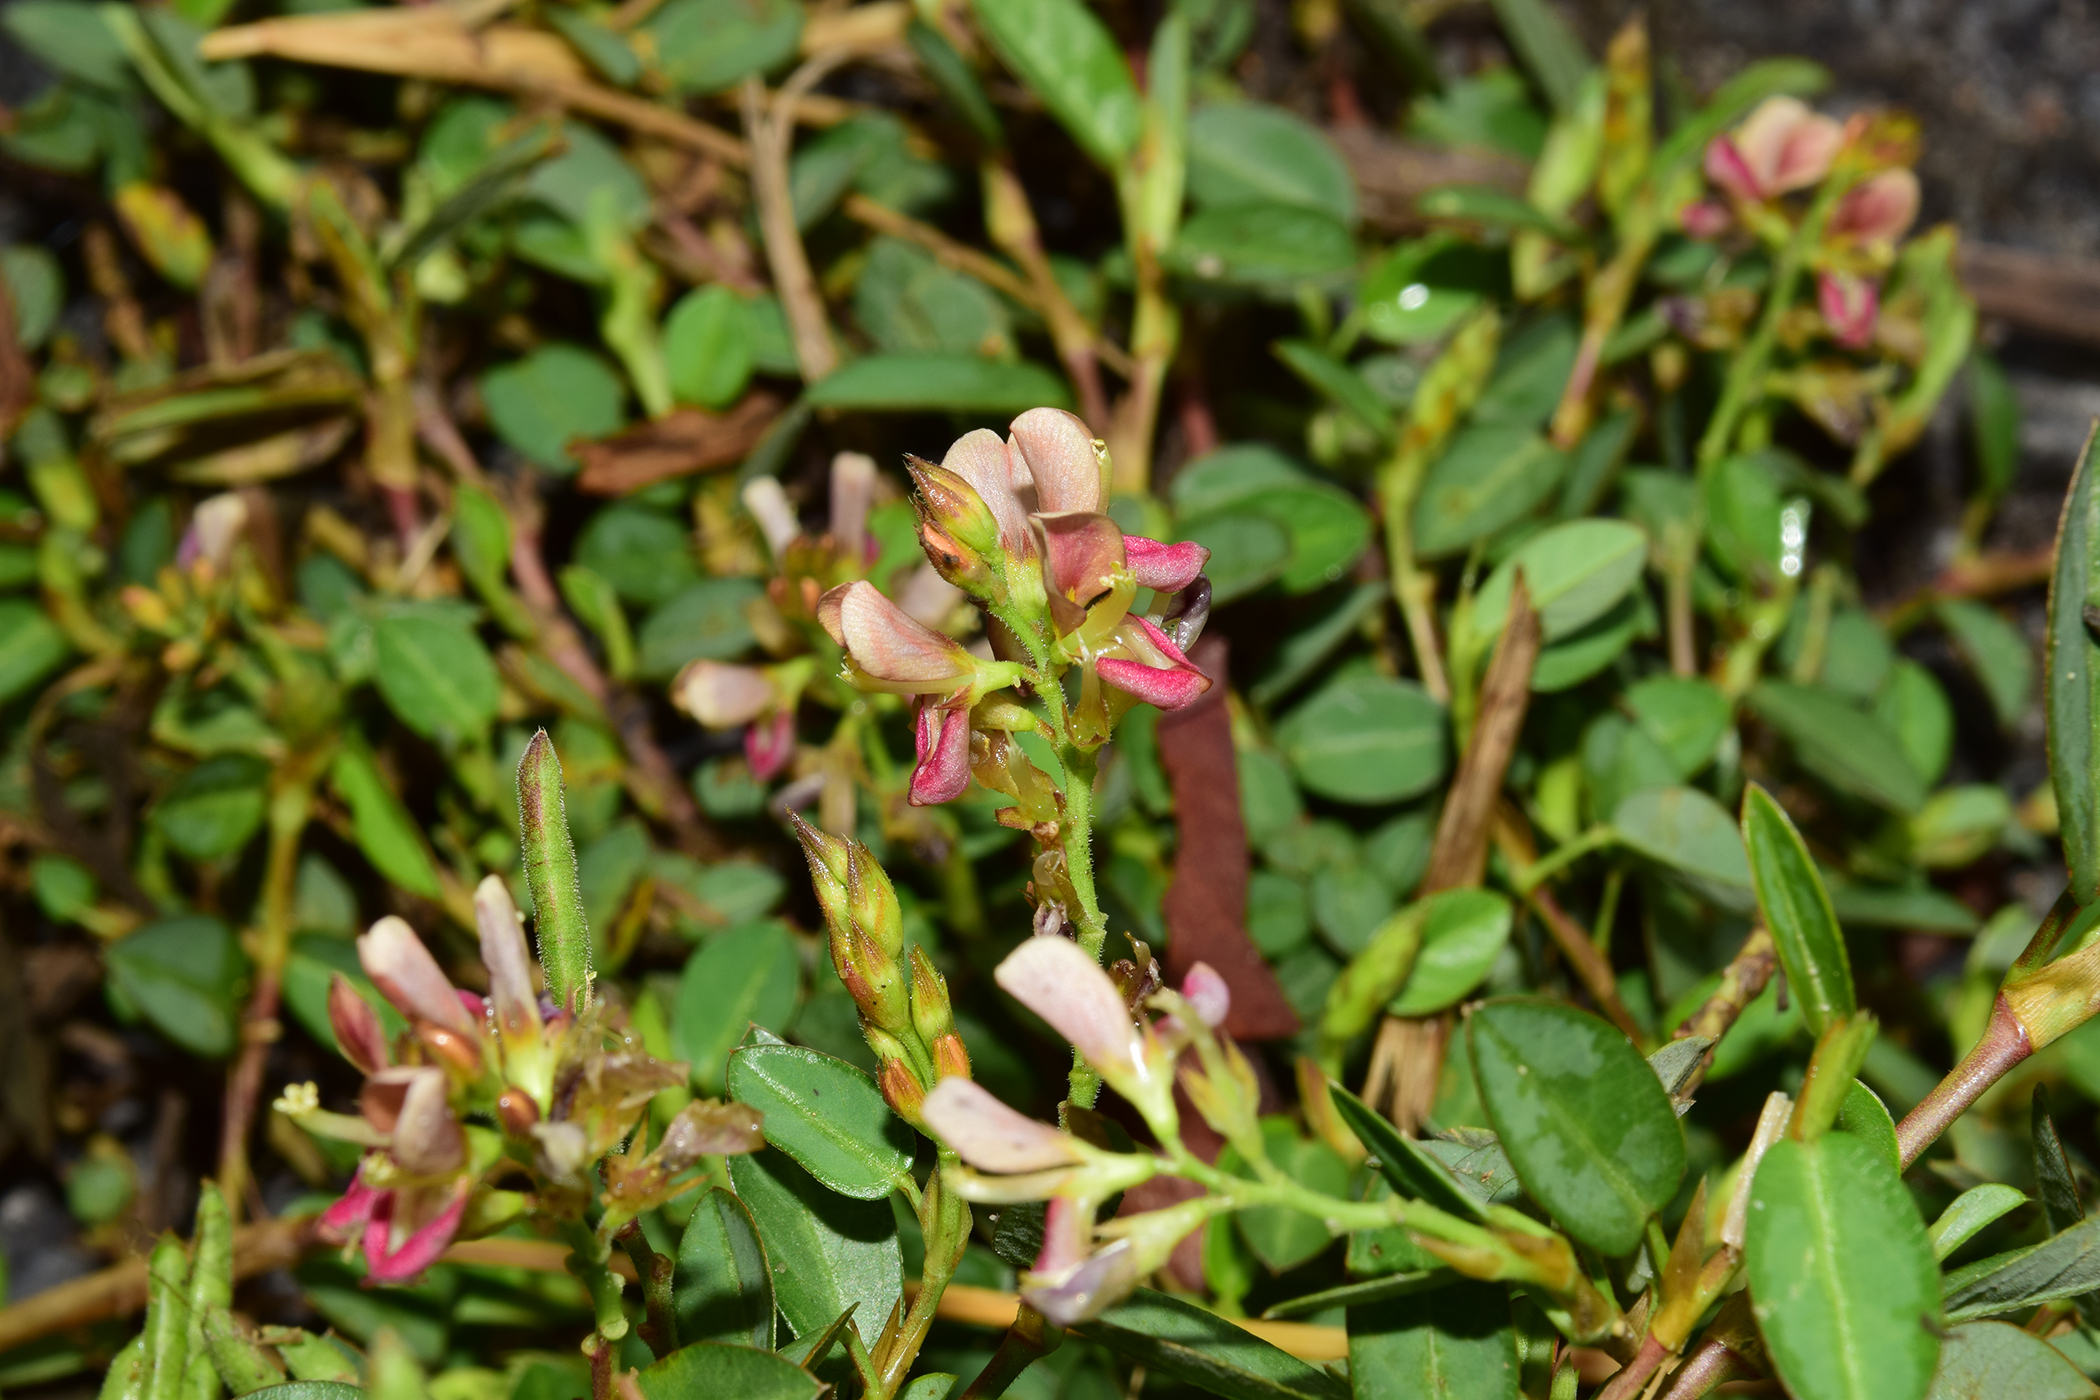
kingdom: Plantae
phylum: Tracheophyta
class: Magnoliopsida
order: Fabales
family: Fabaceae
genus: Alysicarpus
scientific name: Alysicarpus vaginalis
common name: White moneywort
